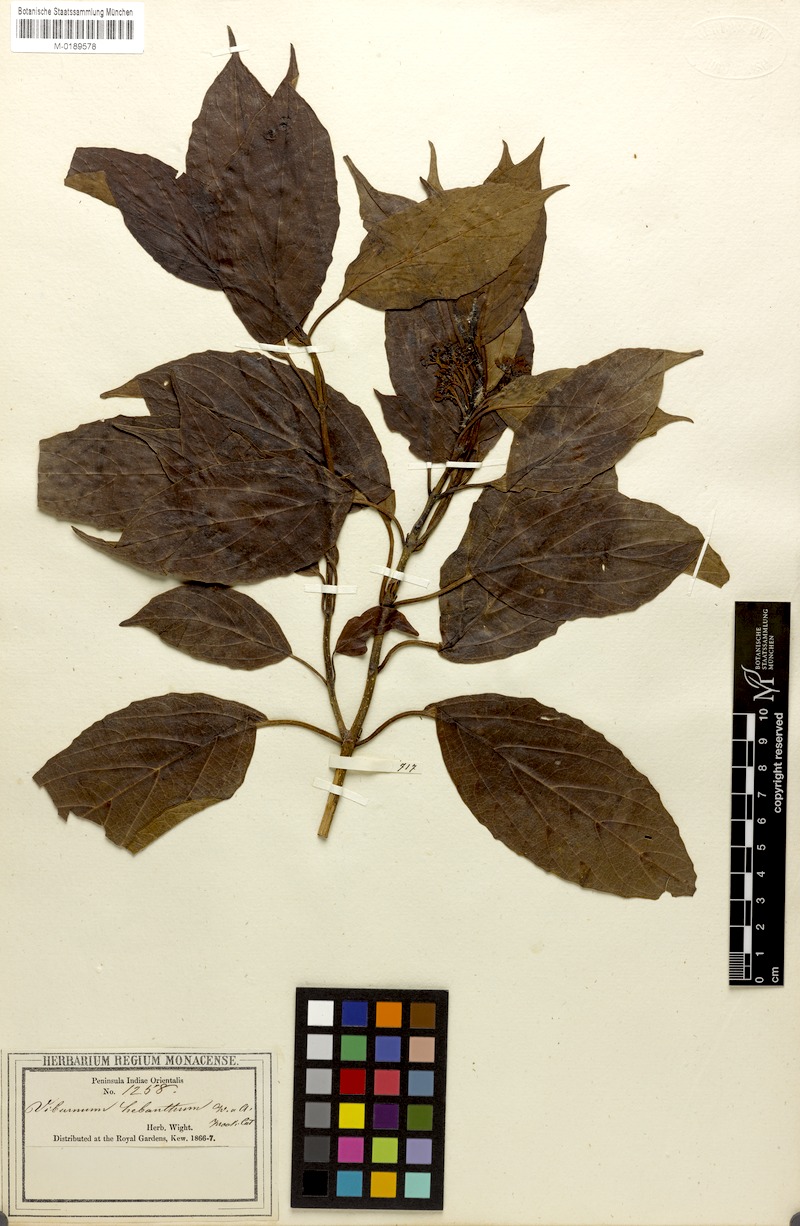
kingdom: Plantae
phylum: Tracheophyta
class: Magnoliopsida
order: Dipsacales
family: Viburnaceae
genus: Viburnum
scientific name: Viburnum coriaceum
